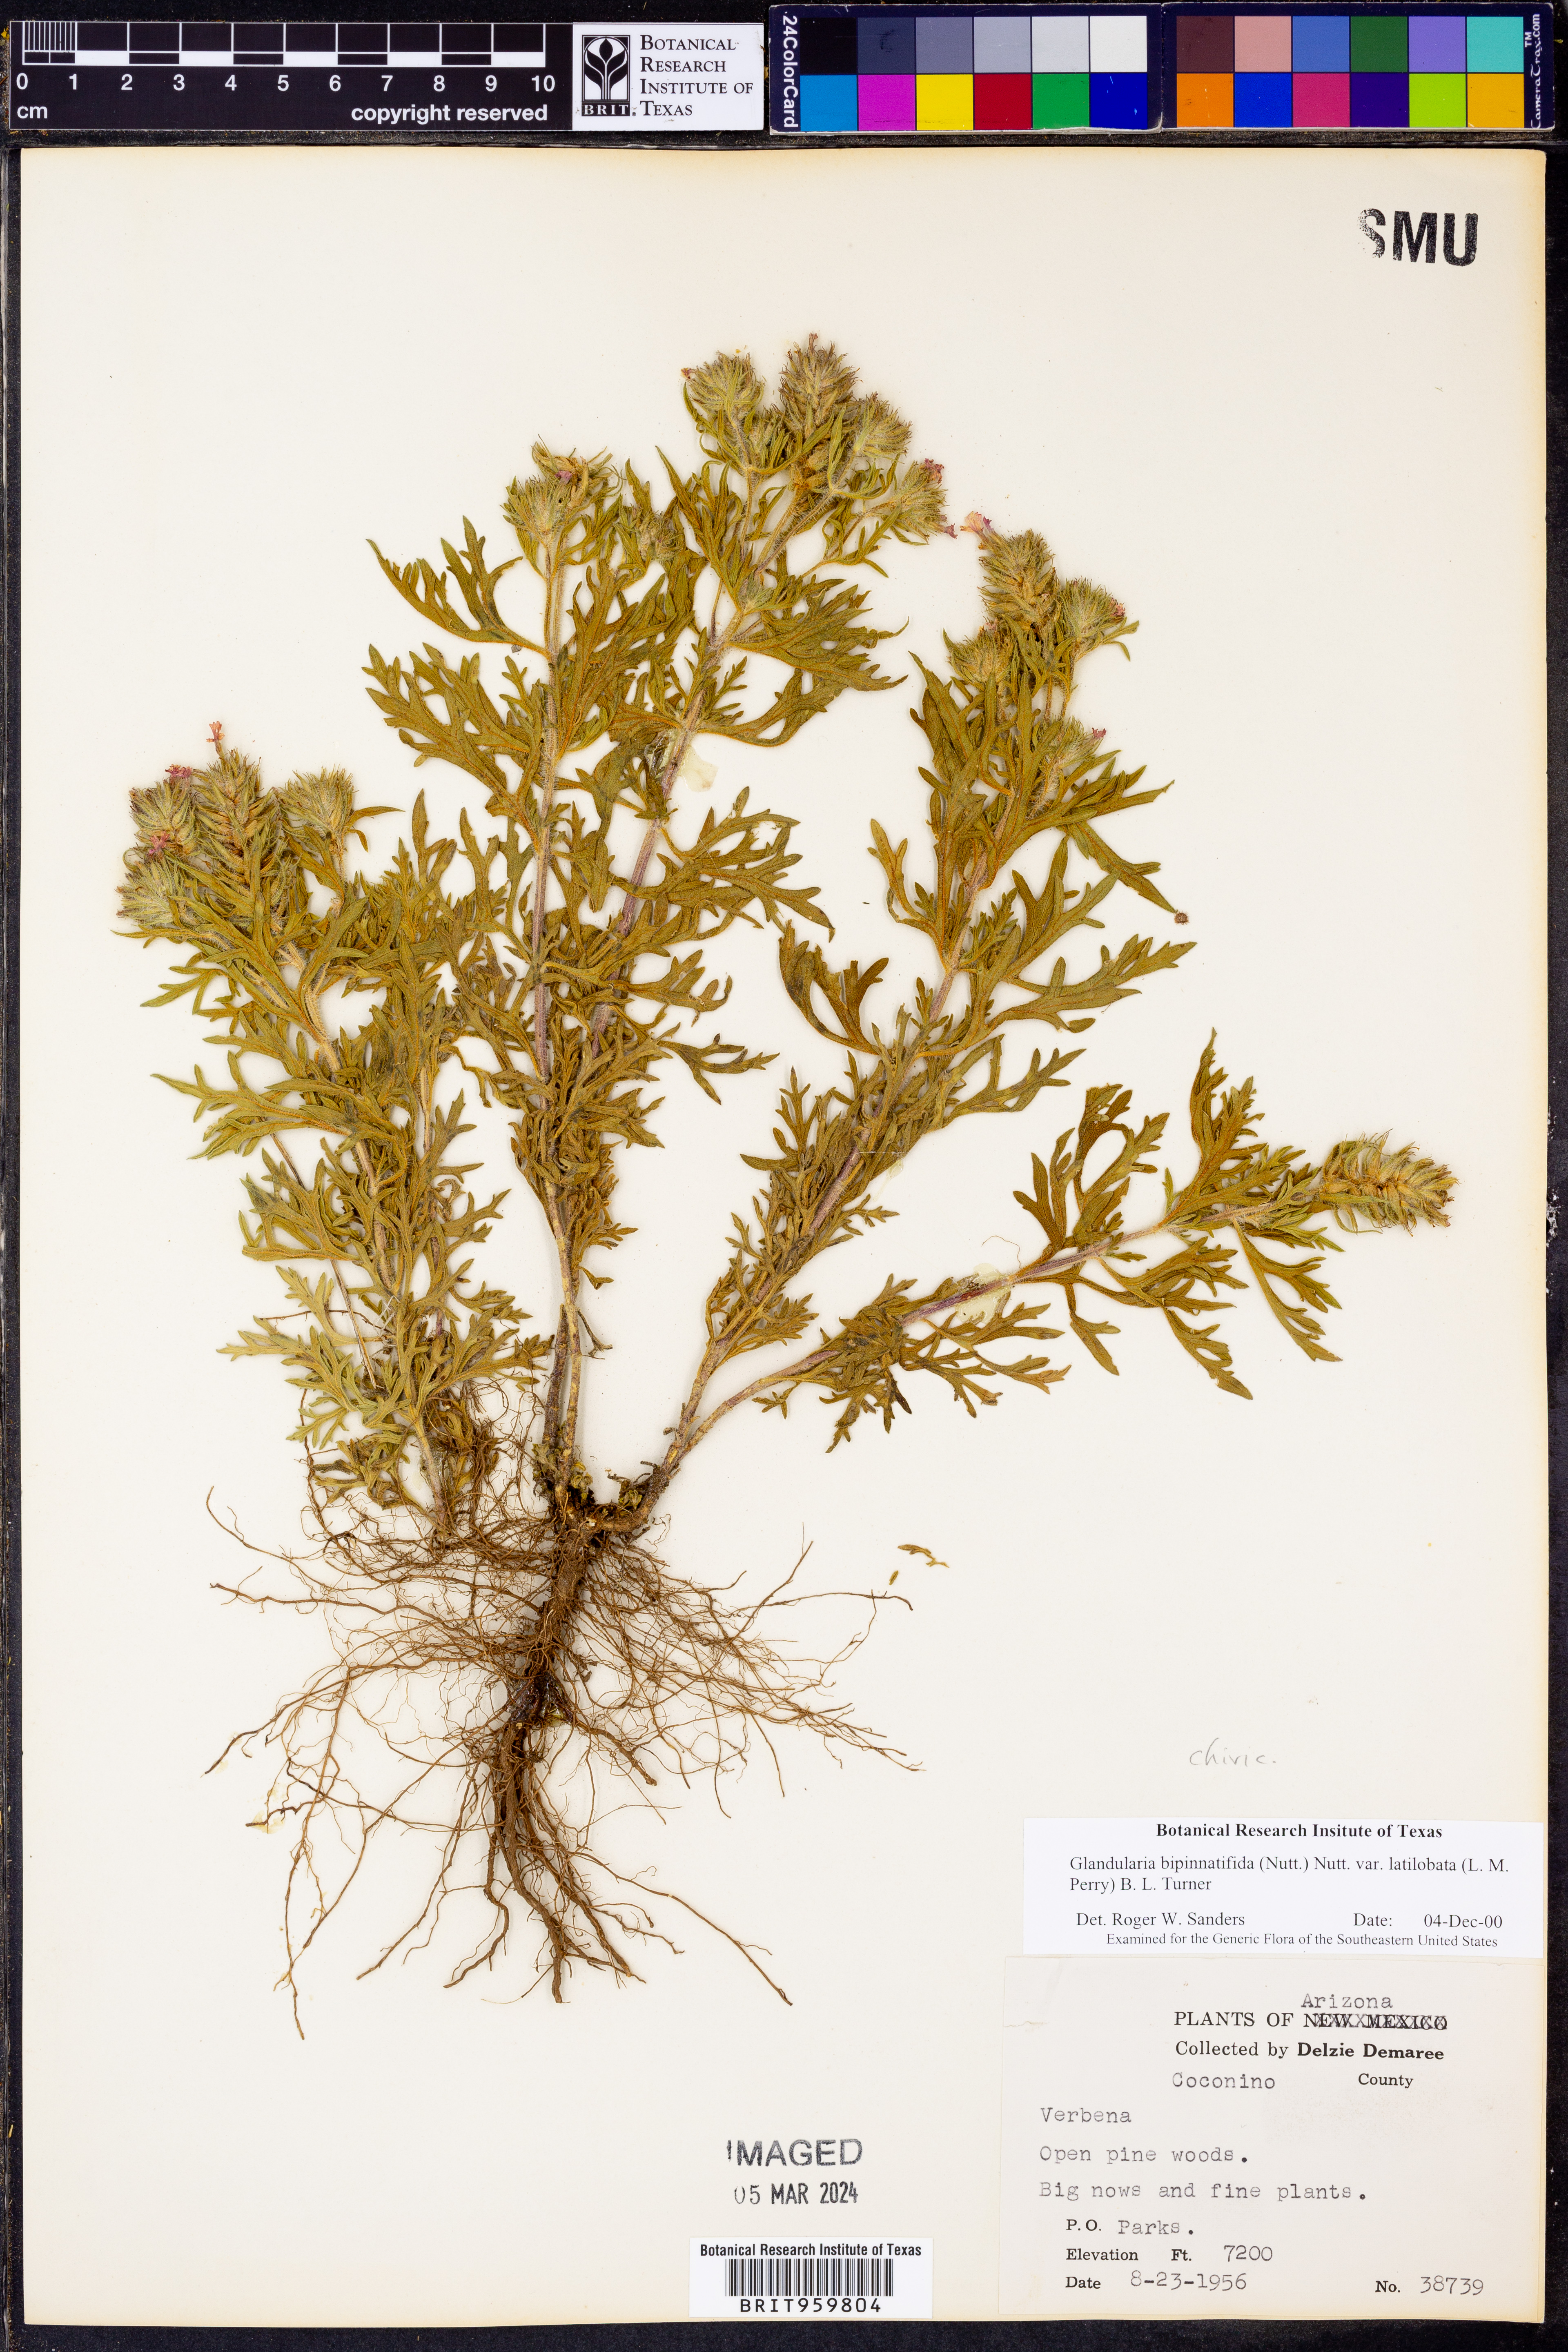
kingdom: Plantae
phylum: Tracheophyta
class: Magnoliopsida
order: Lamiales
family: Verbenaceae
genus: Verbena
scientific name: Verbena gooddingii
